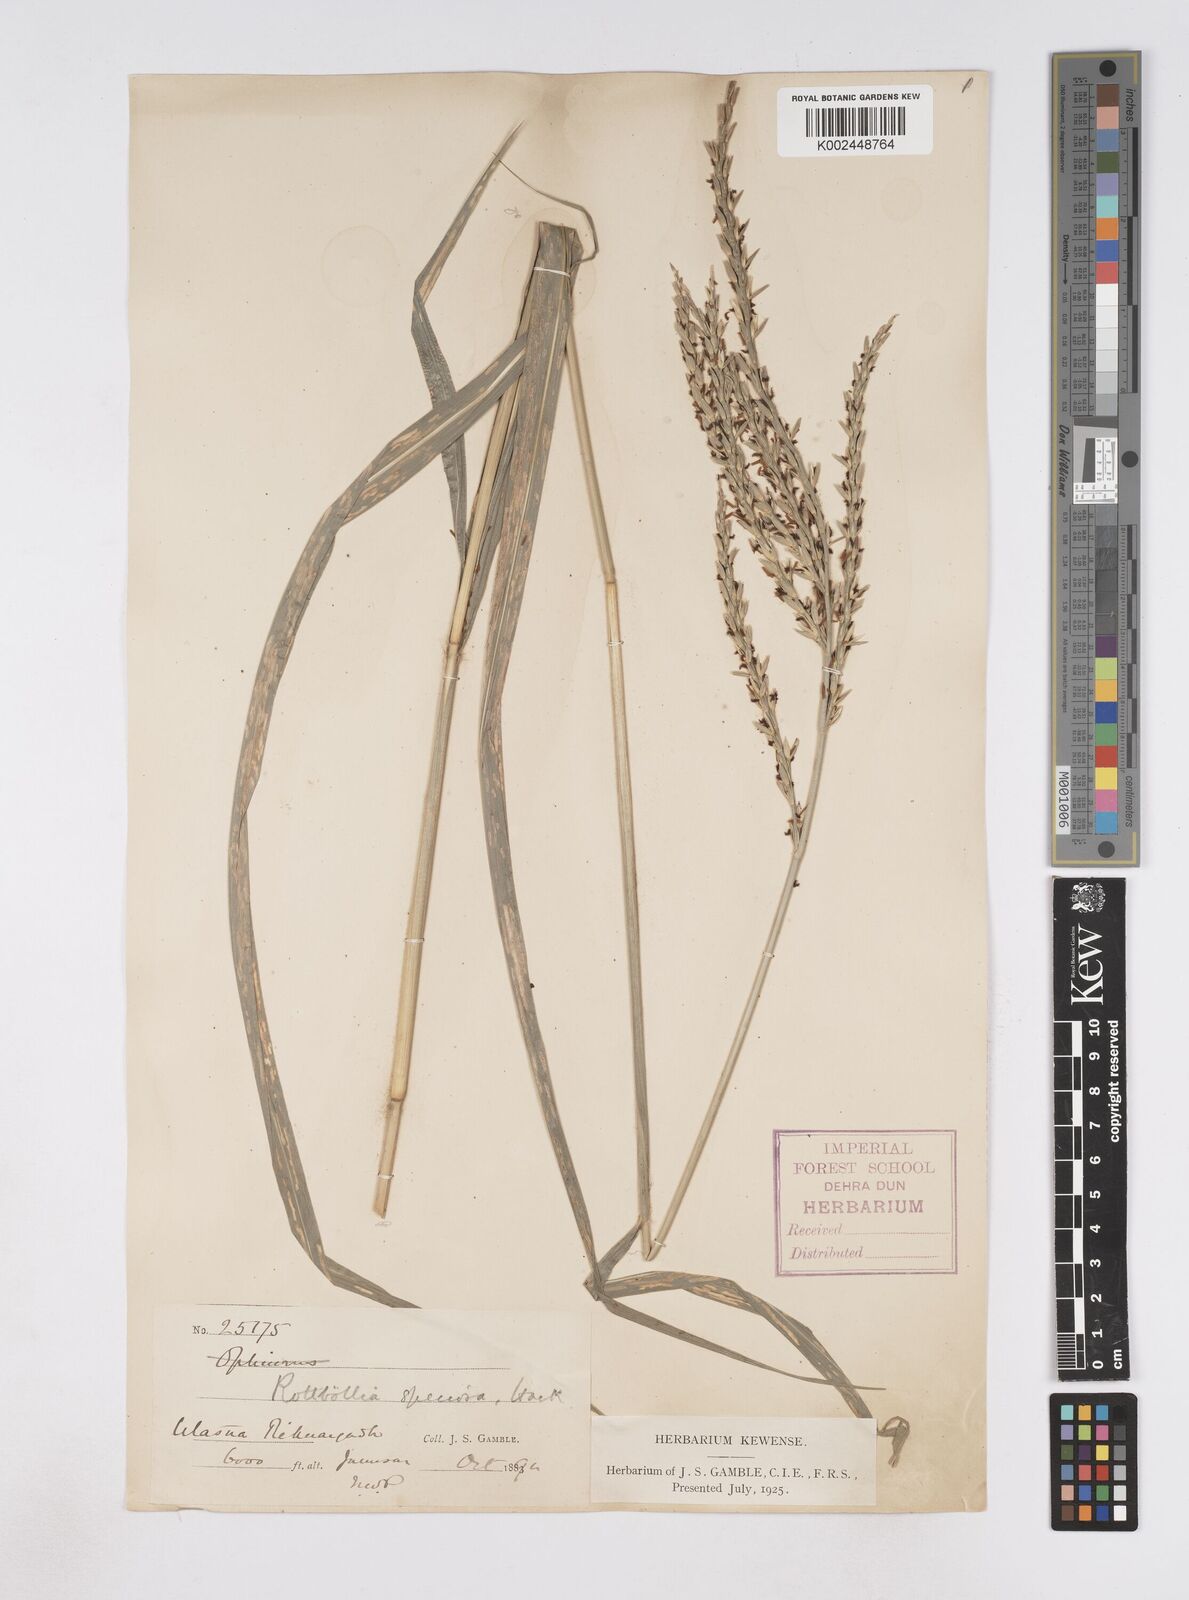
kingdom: Plantae
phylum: Tracheophyta
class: Liliopsida
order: Poales
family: Poaceae
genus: Phacelurus
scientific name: Phacelurus speciosus
